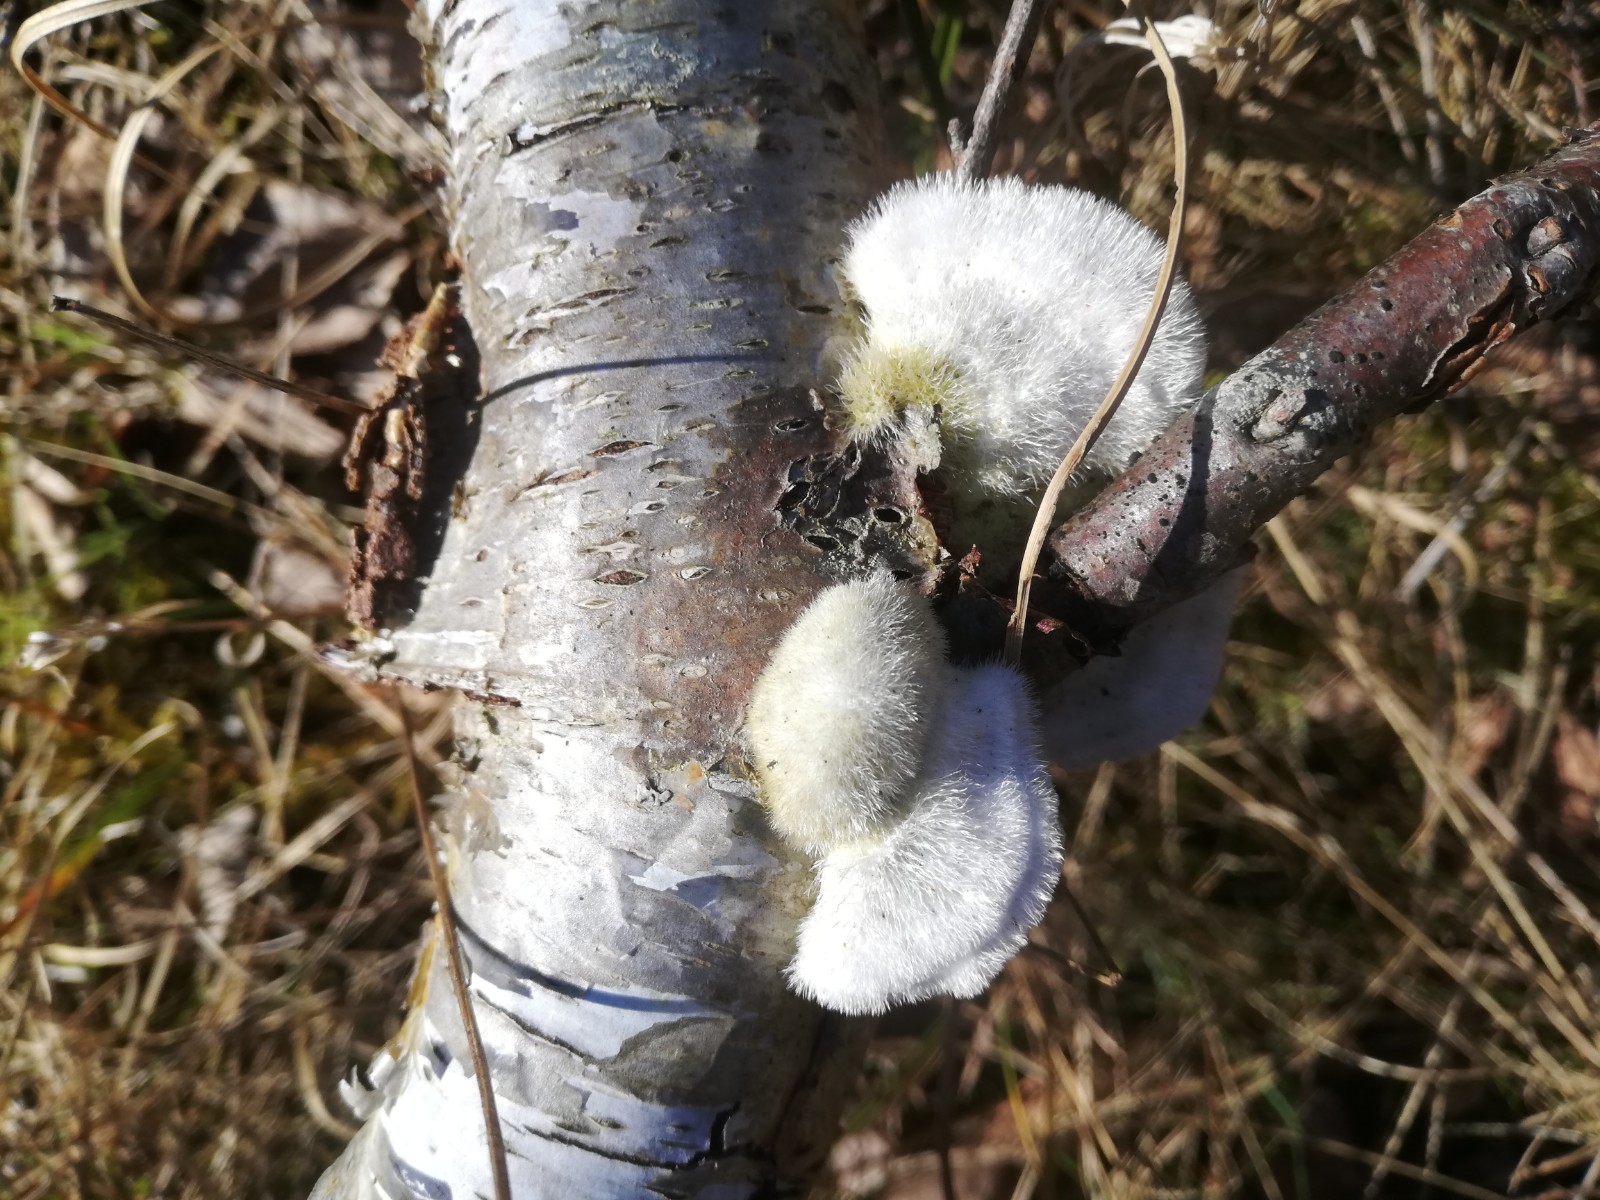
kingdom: Fungi
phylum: Basidiomycota
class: Agaricomycetes
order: Polyporales
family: Polyporaceae
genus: Trametes
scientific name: Trametes hirsuta
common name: håret læderporesvamp
